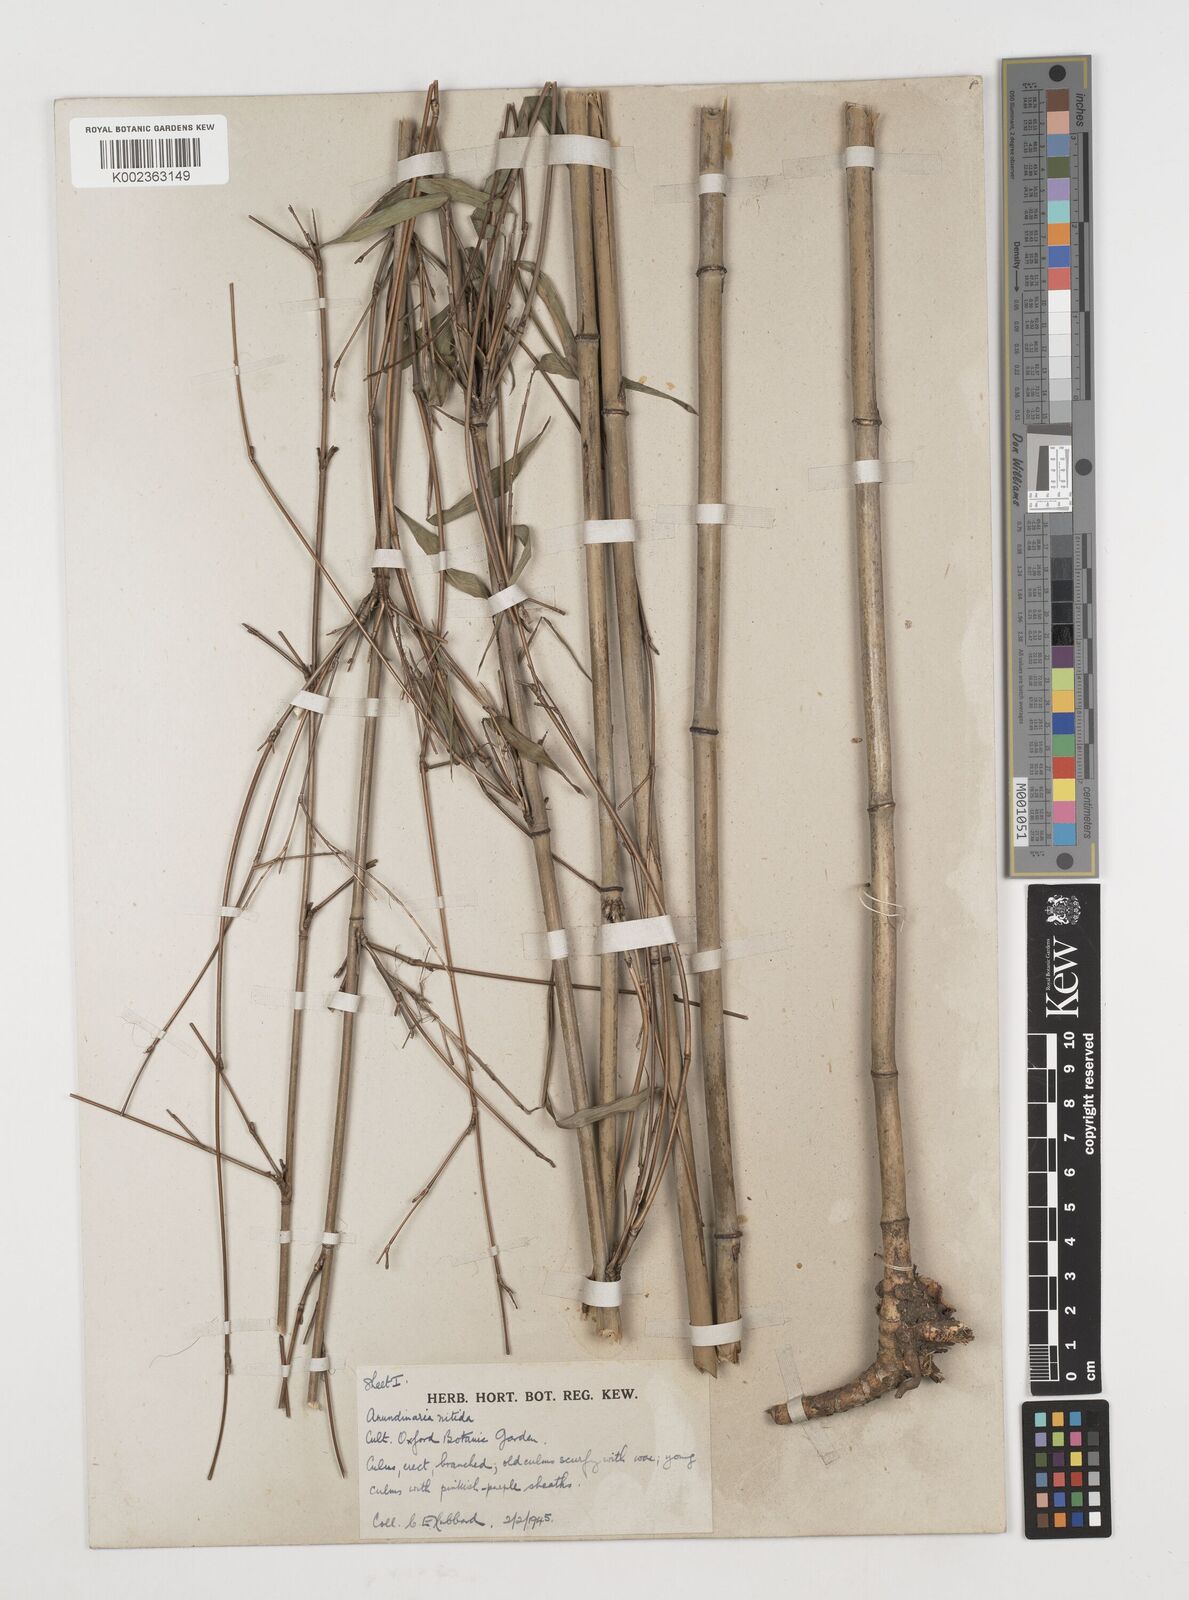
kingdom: Plantae
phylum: Tracheophyta
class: Liliopsida
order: Poales
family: Poaceae
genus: Fargesia
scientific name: Fargesia
